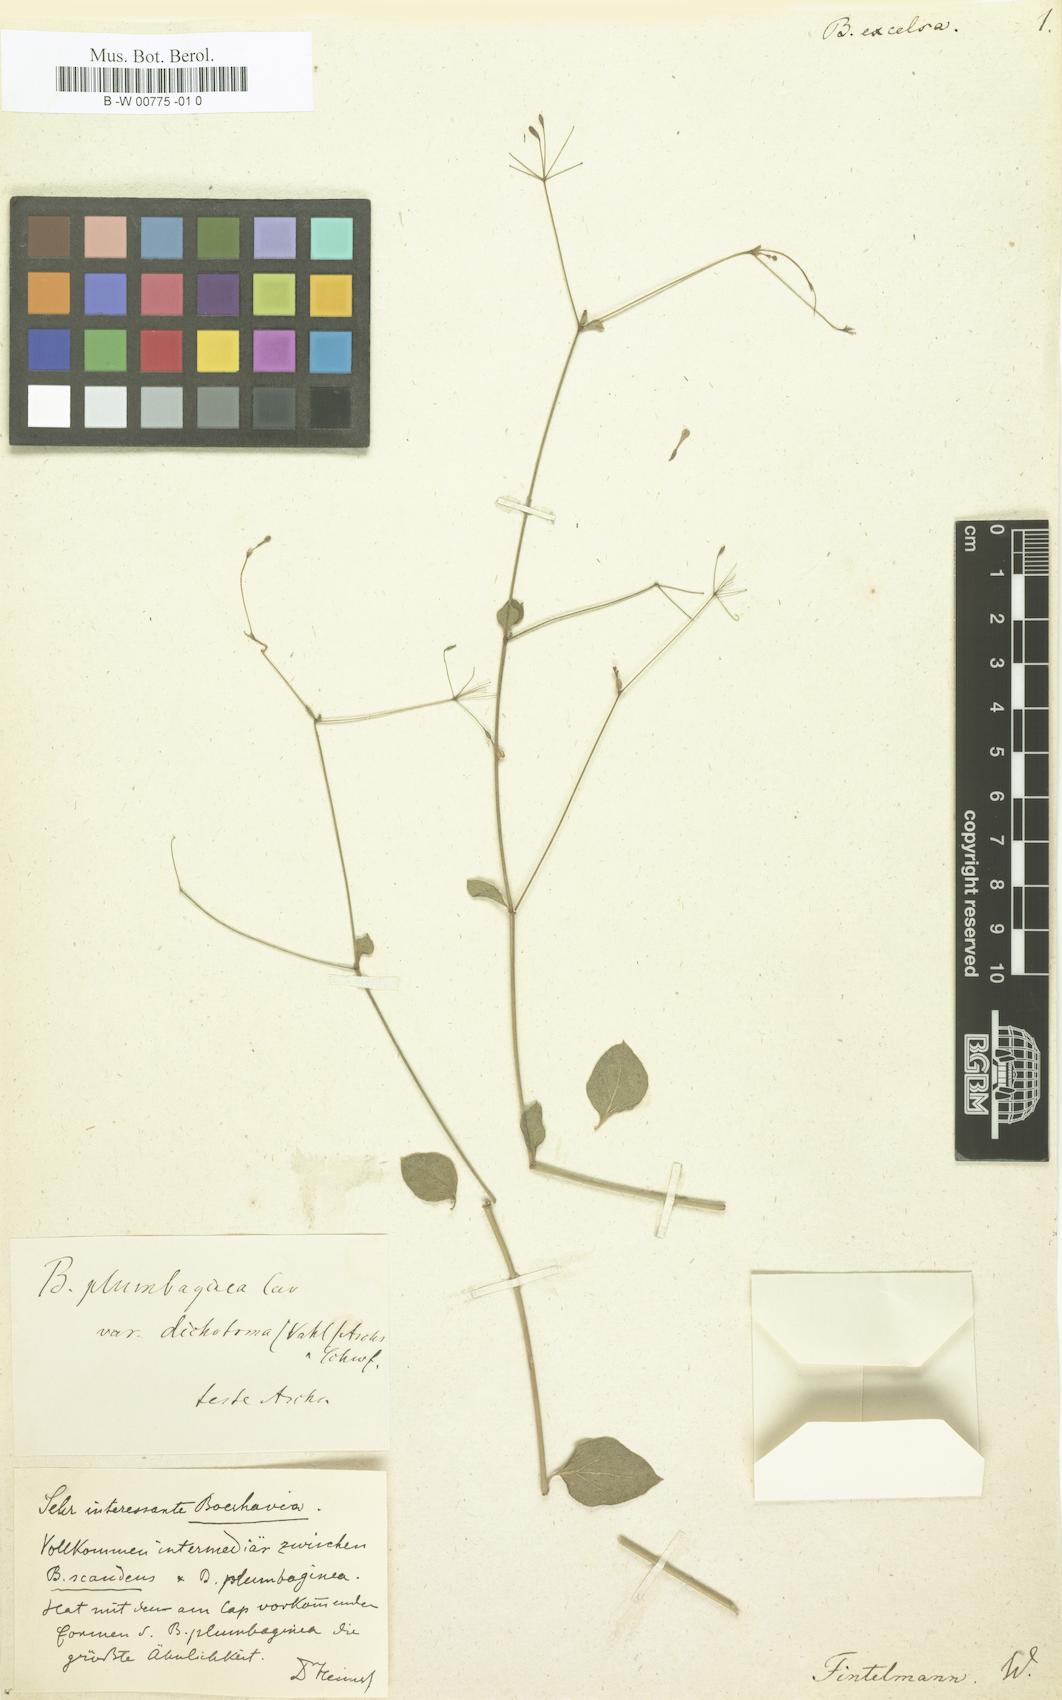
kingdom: Plantae
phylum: Tracheophyta
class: Magnoliopsida
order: Caryophyllales
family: Nyctaginaceae
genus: Commicarpus
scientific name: Commicarpus tuberosus
